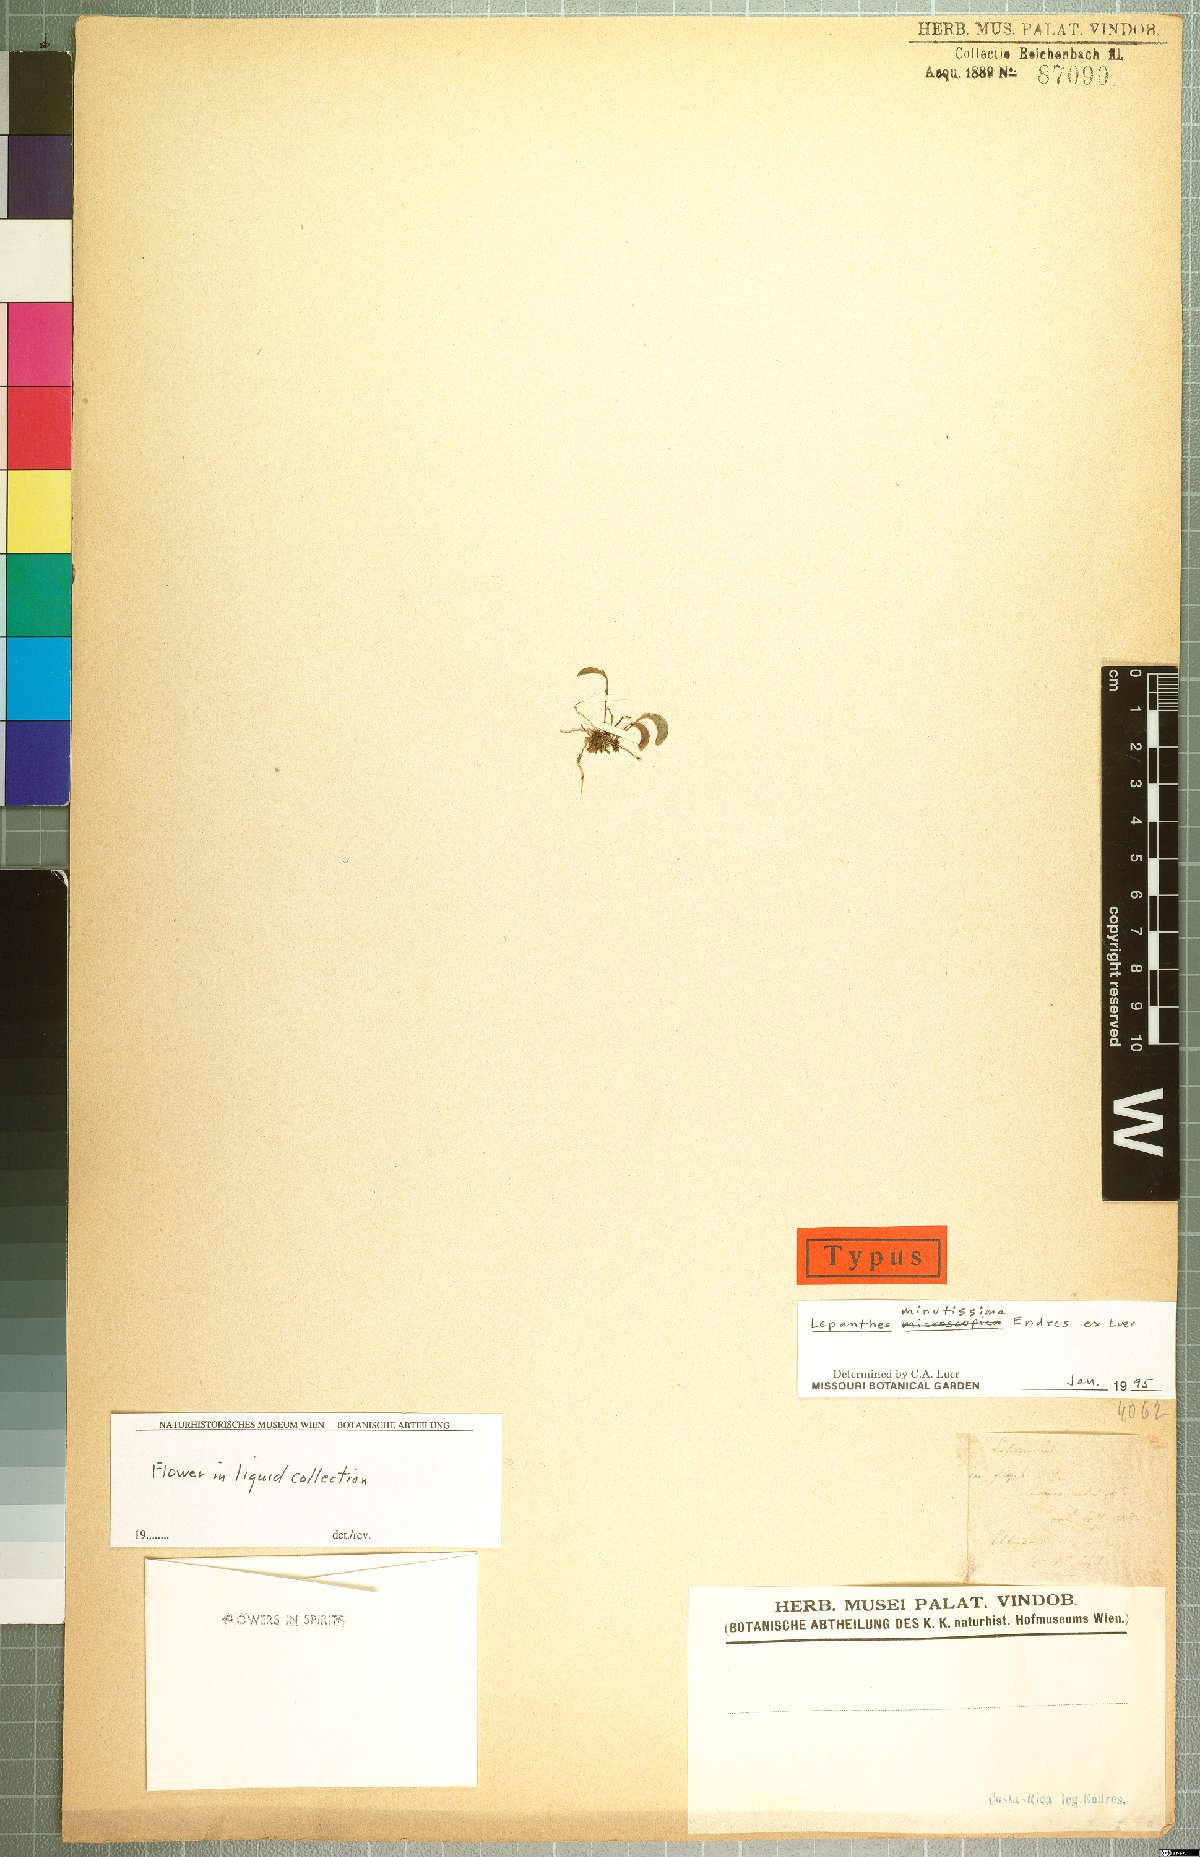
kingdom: Plantae
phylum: Tracheophyta
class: Liliopsida
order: Asparagales
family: Orchidaceae
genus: Lepanthes
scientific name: Lepanthes minutissima
